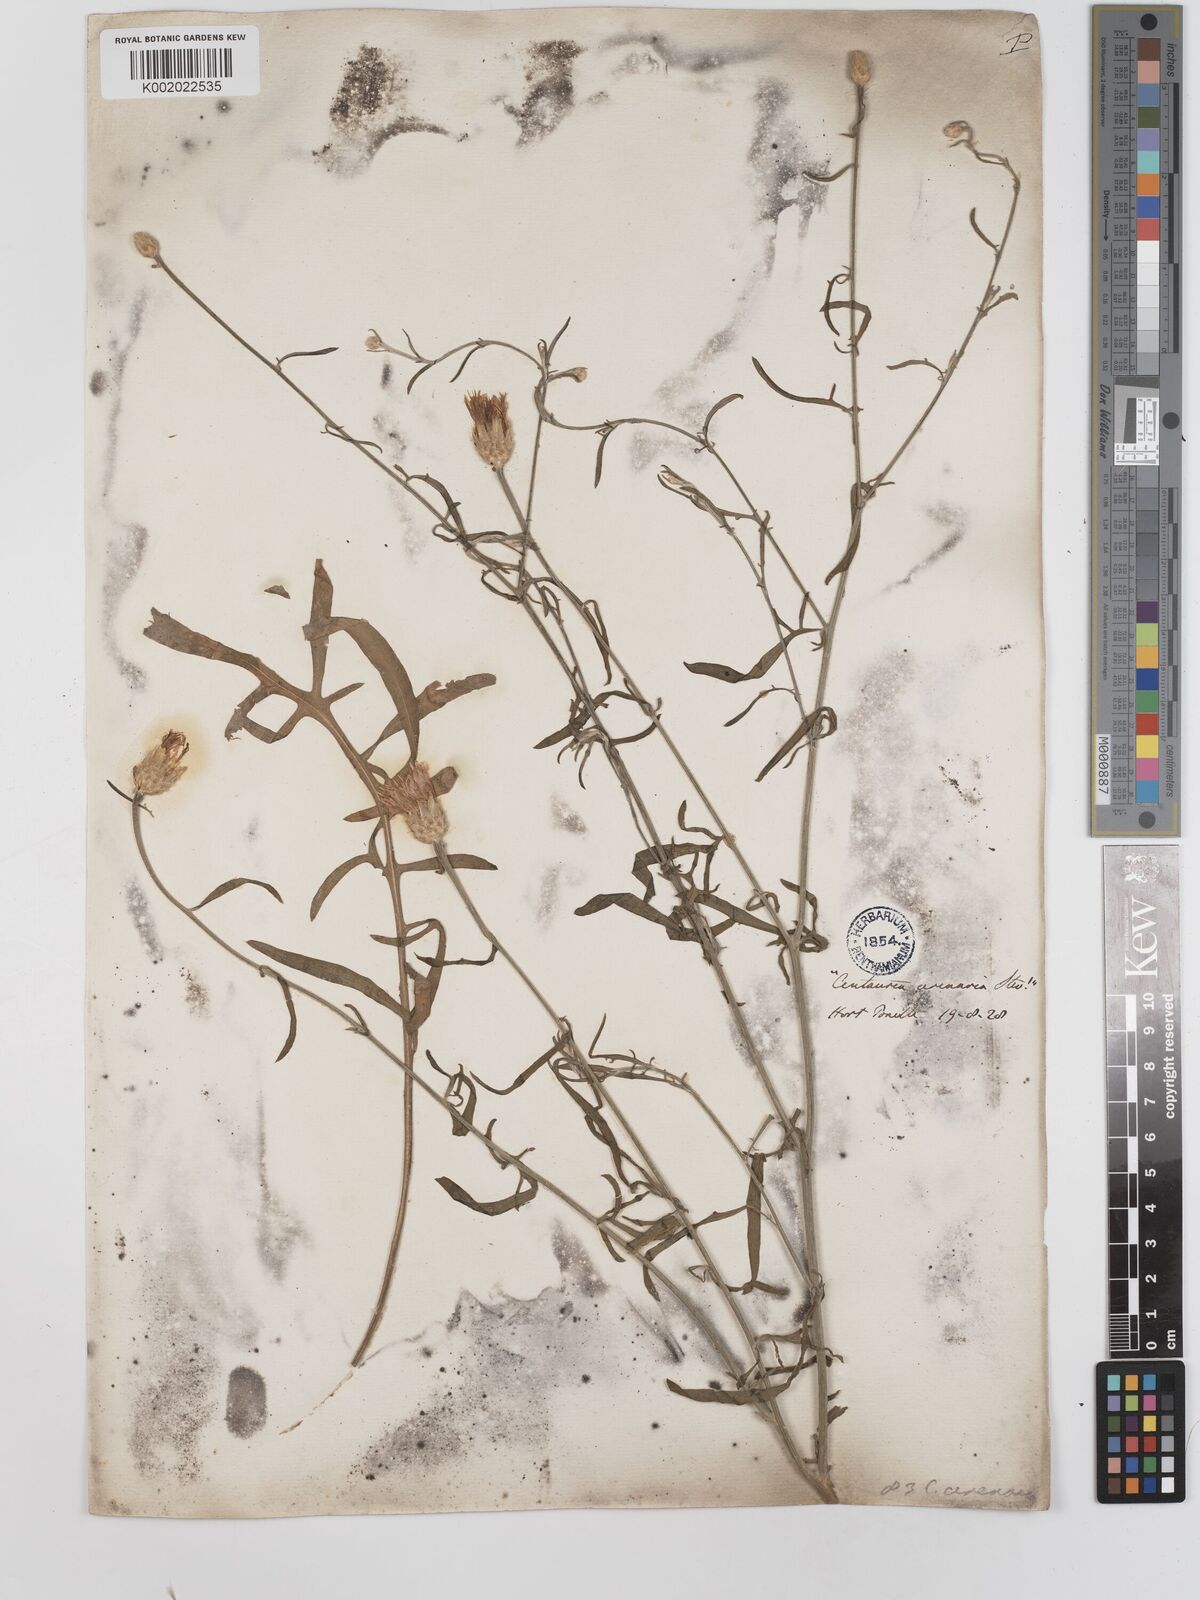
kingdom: Plantae
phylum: Tracheophyta
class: Magnoliopsida
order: Asterales
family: Asteraceae
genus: Centaurea
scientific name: Centaurea
